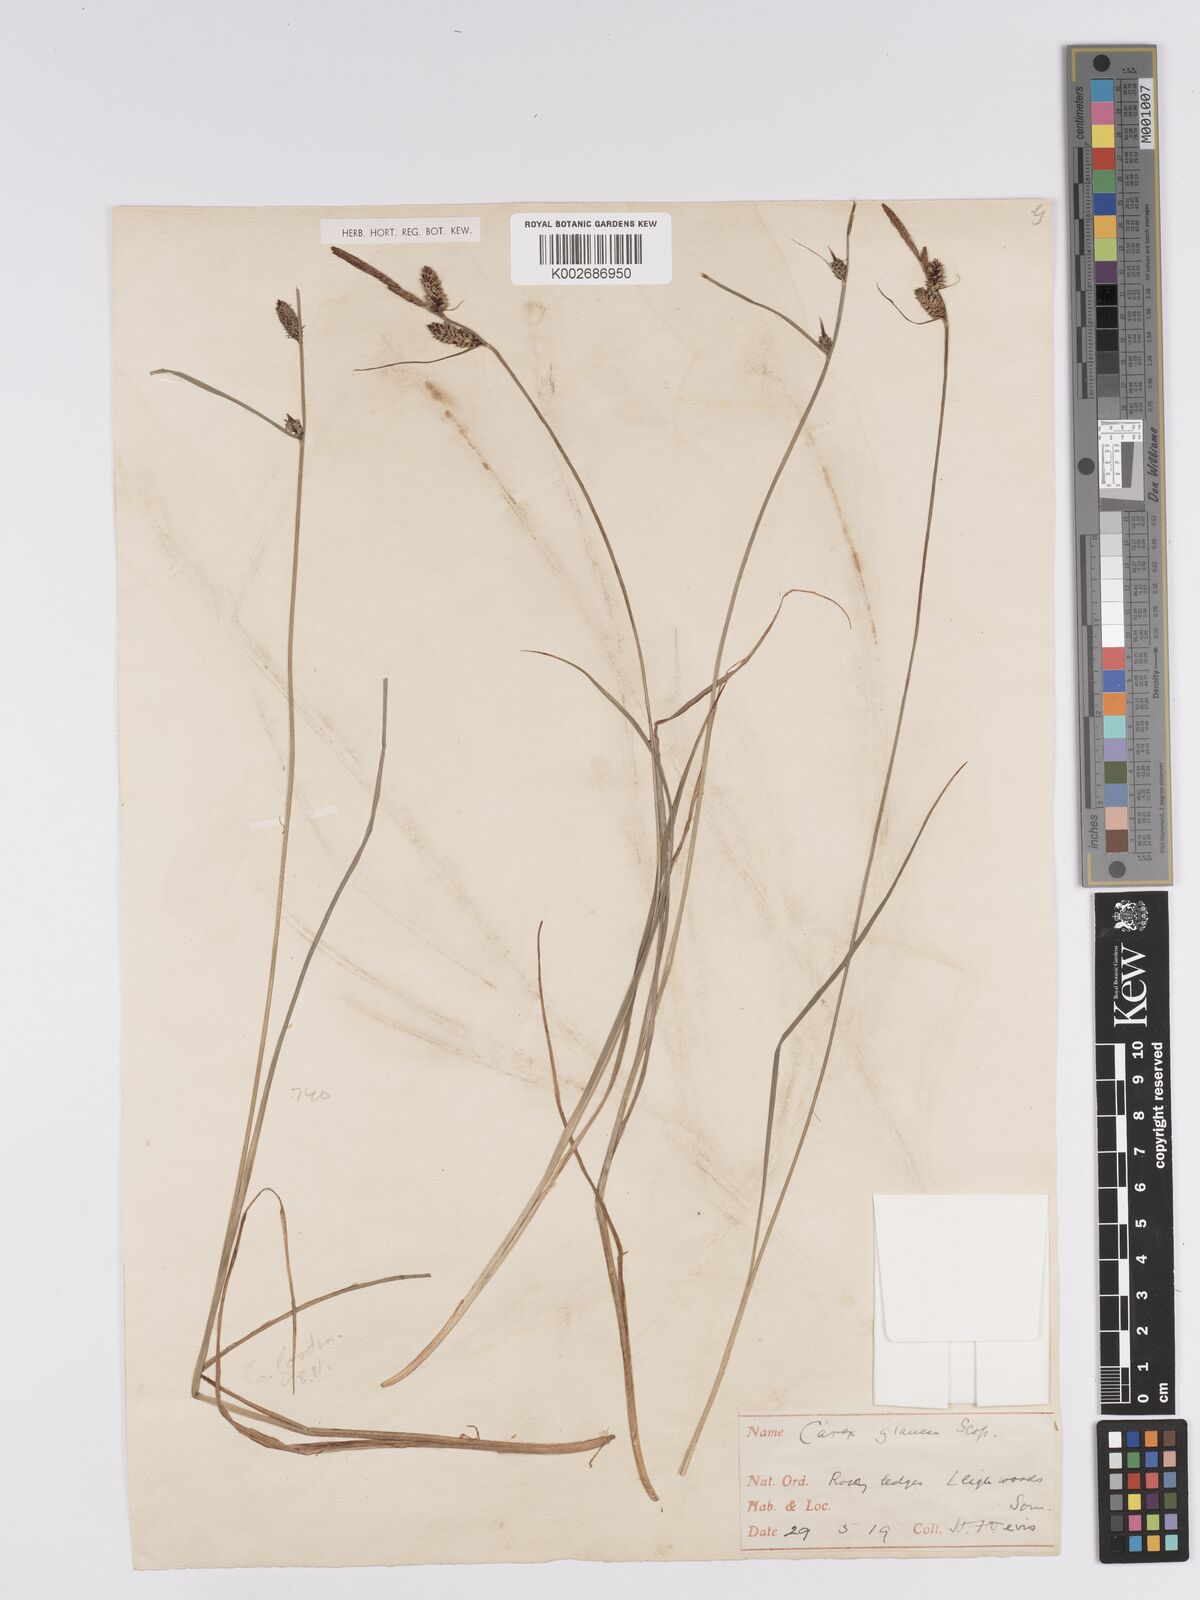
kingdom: Plantae
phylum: Tracheophyta
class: Liliopsida
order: Poales
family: Cyperaceae
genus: Carex
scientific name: Carex nigra
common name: Common sedge
